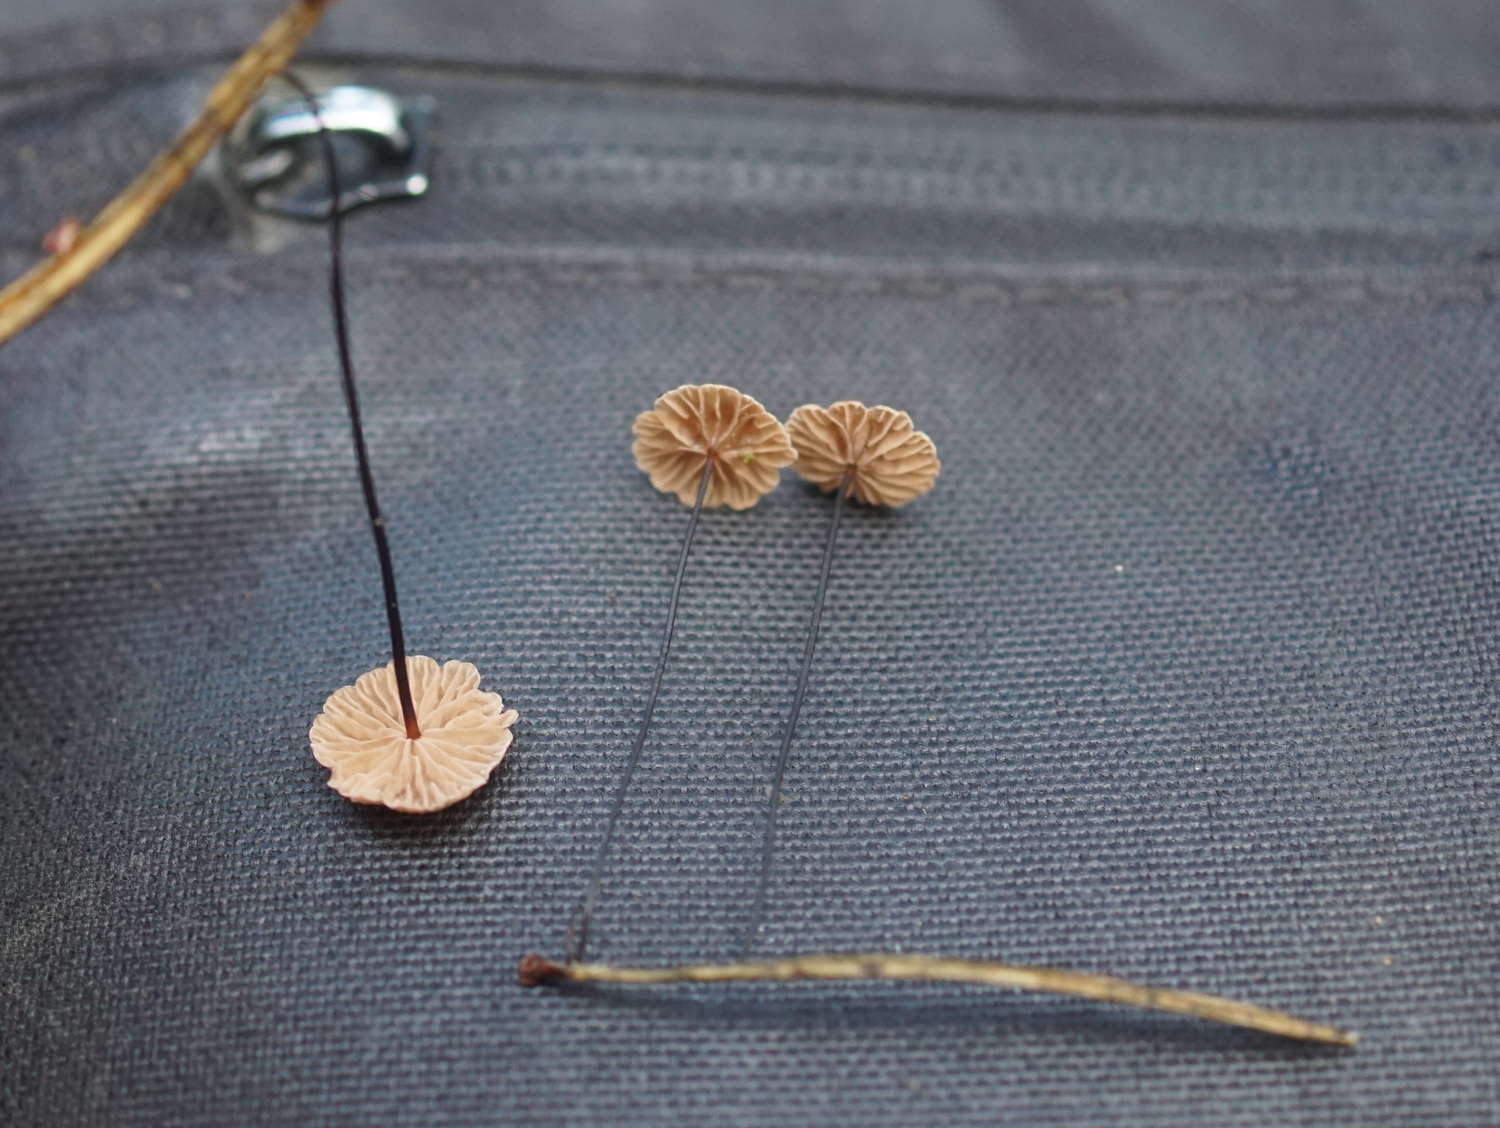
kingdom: Fungi
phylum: Basidiomycota
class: Agaricomycetes
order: Agaricales
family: Omphalotaceae
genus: Gymnopus
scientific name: Gymnopus androsaceus
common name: trådstokket fladhat
